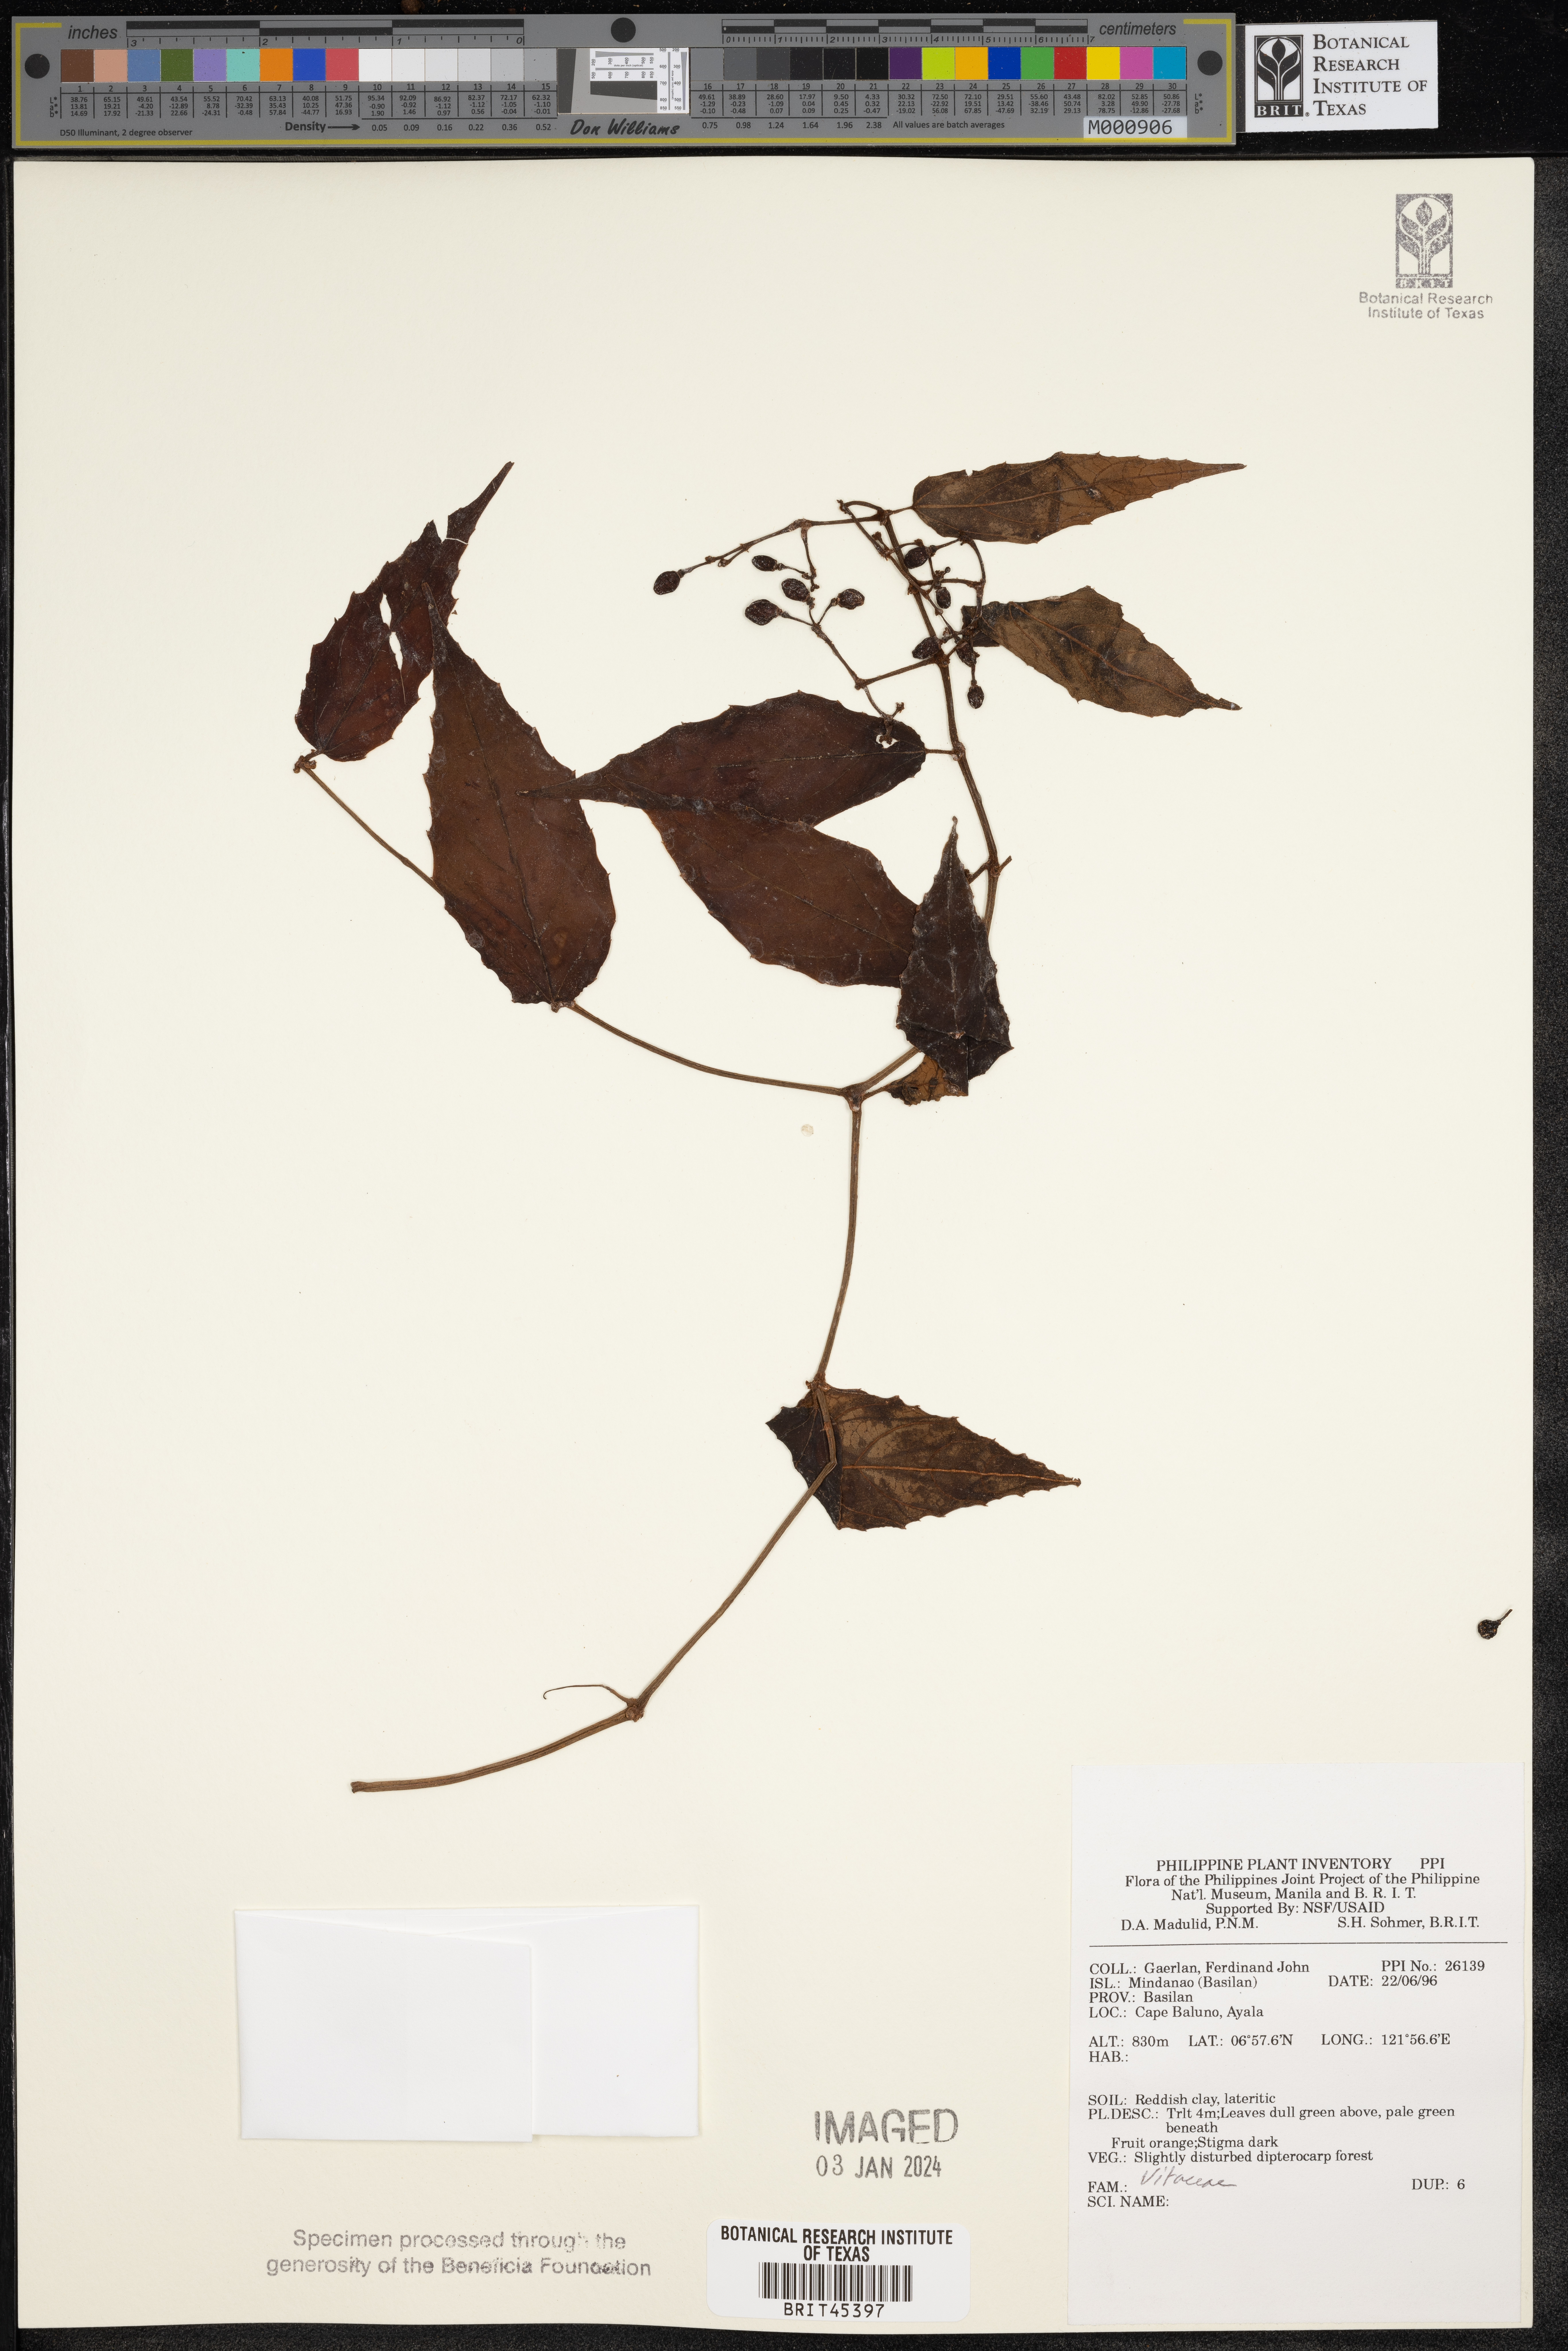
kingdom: Plantae
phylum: Tracheophyta
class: Magnoliopsida
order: Vitales
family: Vitaceae
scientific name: Vitaceae
